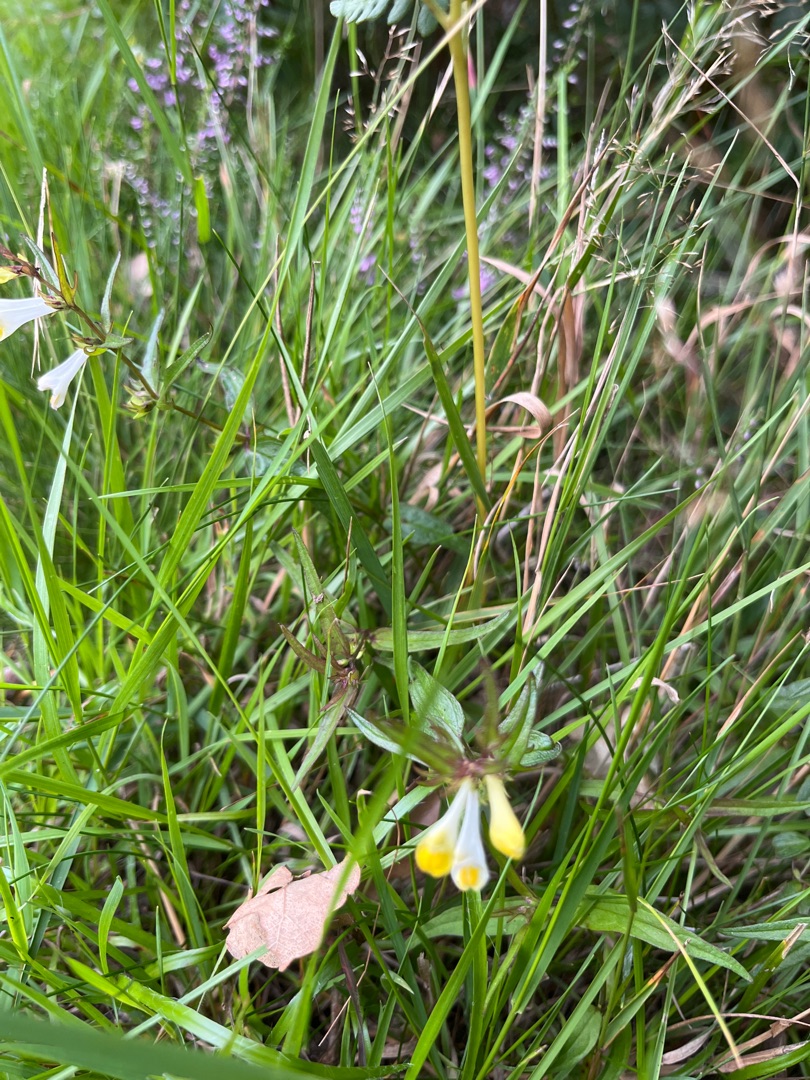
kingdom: Plantae
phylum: Tracheophyta
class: Magnoliopsida
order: Lamiales
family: Orobanchaceae
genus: Melampyrum
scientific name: Melampyrum pratense
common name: Almindelig kohvede
